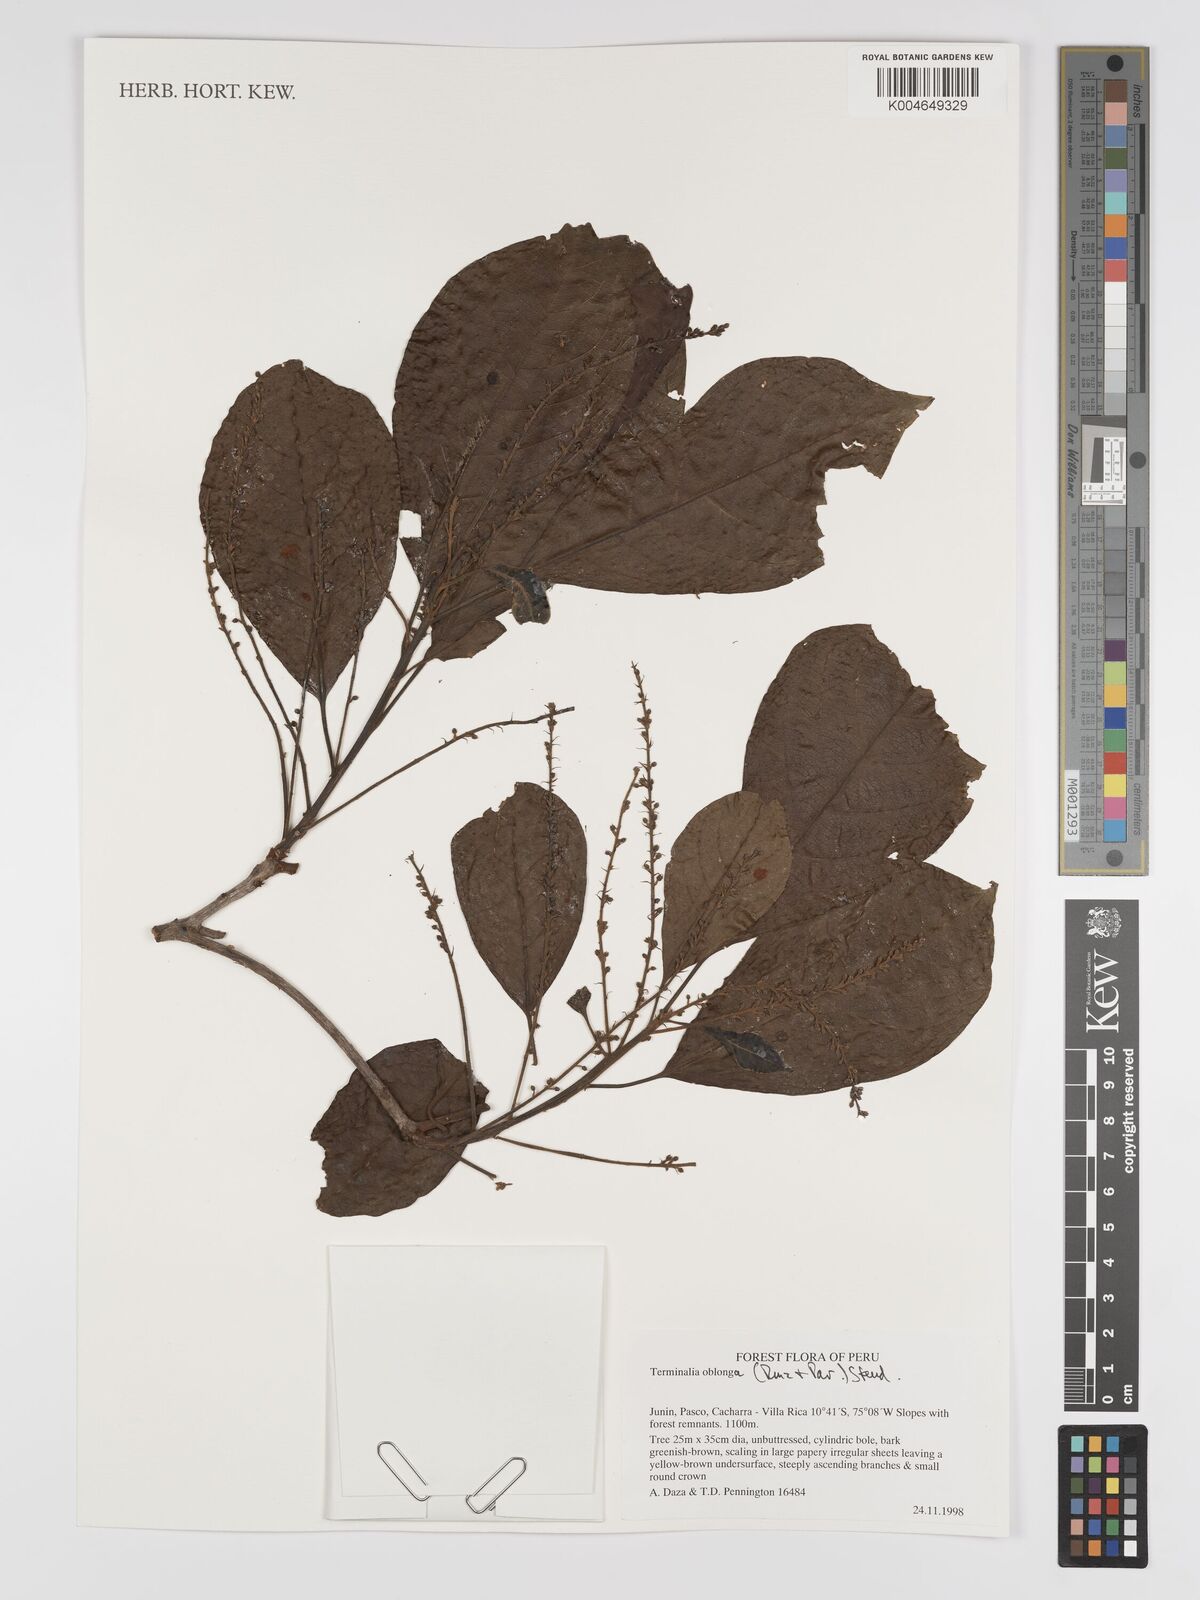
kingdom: Plantae
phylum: Tracheophyta
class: Magnoliopsida
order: Myrtales
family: Combretaceae
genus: Terminalia
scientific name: Terminalia oblonga
